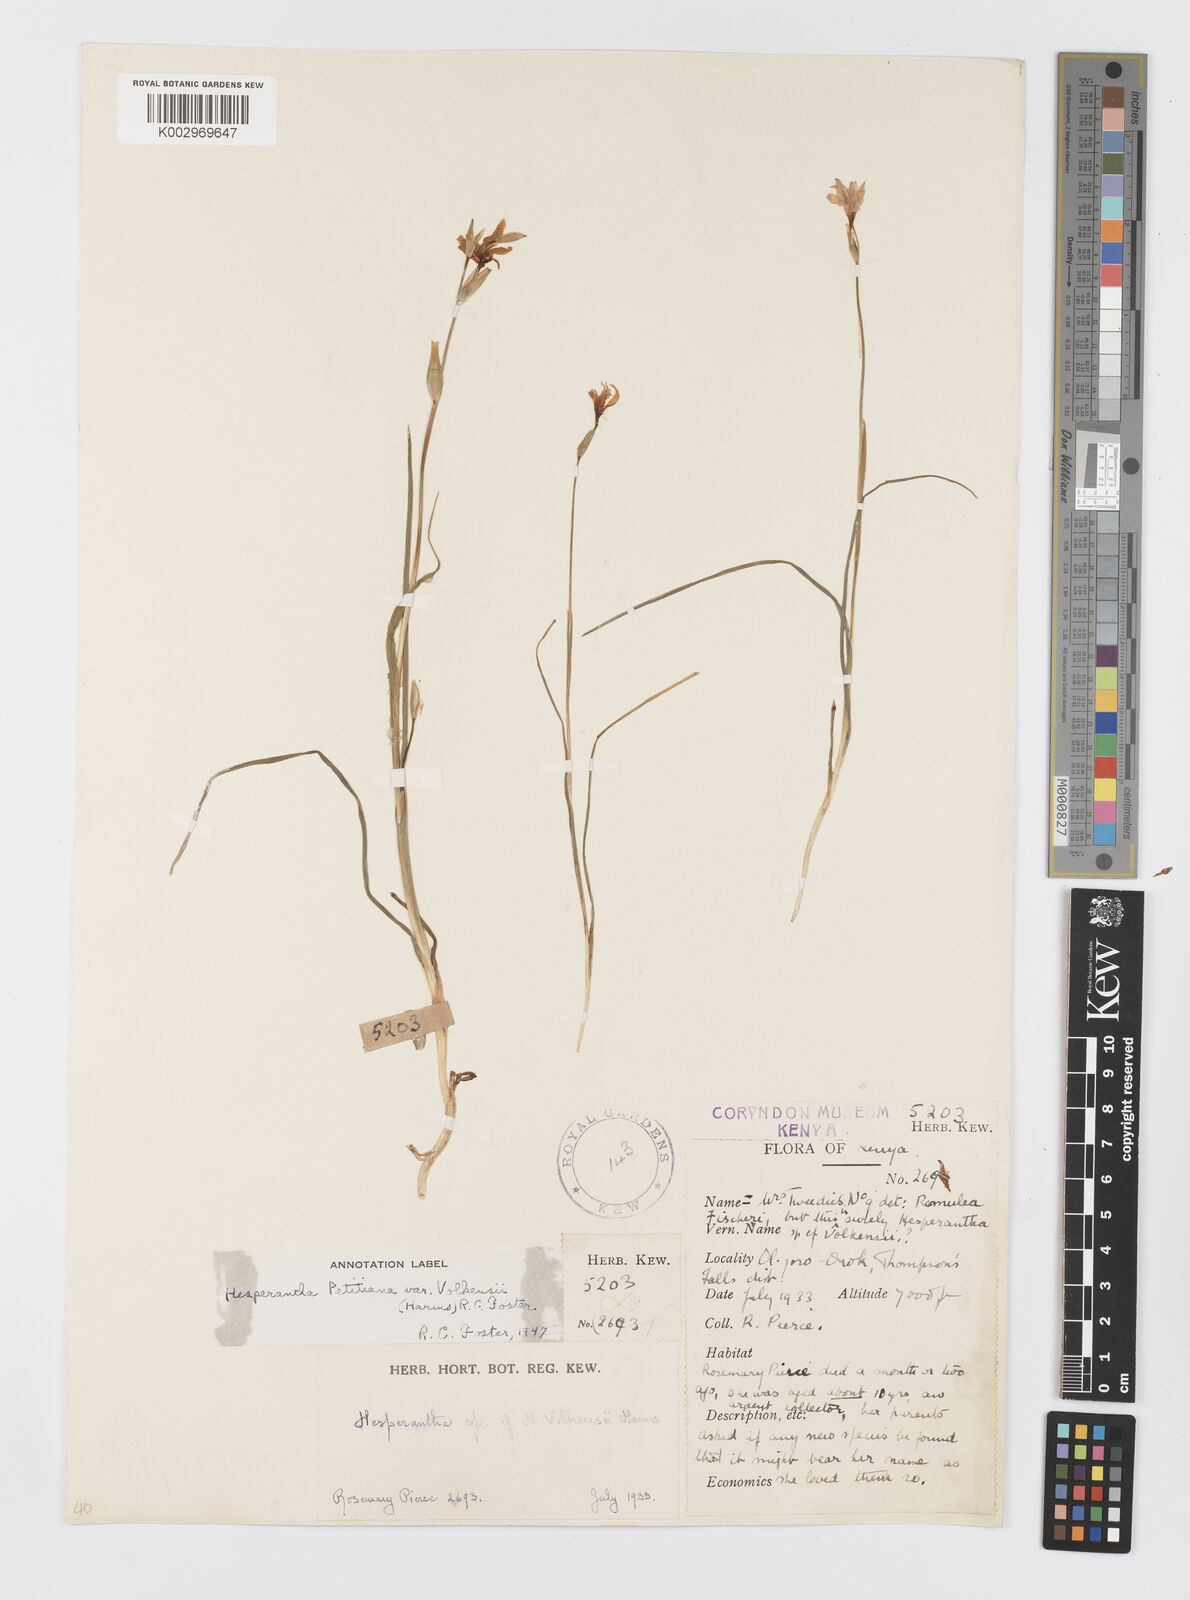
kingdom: Plantae
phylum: Tracheophyta
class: Liliopsida
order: Asparagales
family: Iridaceae
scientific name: Iridaceae
